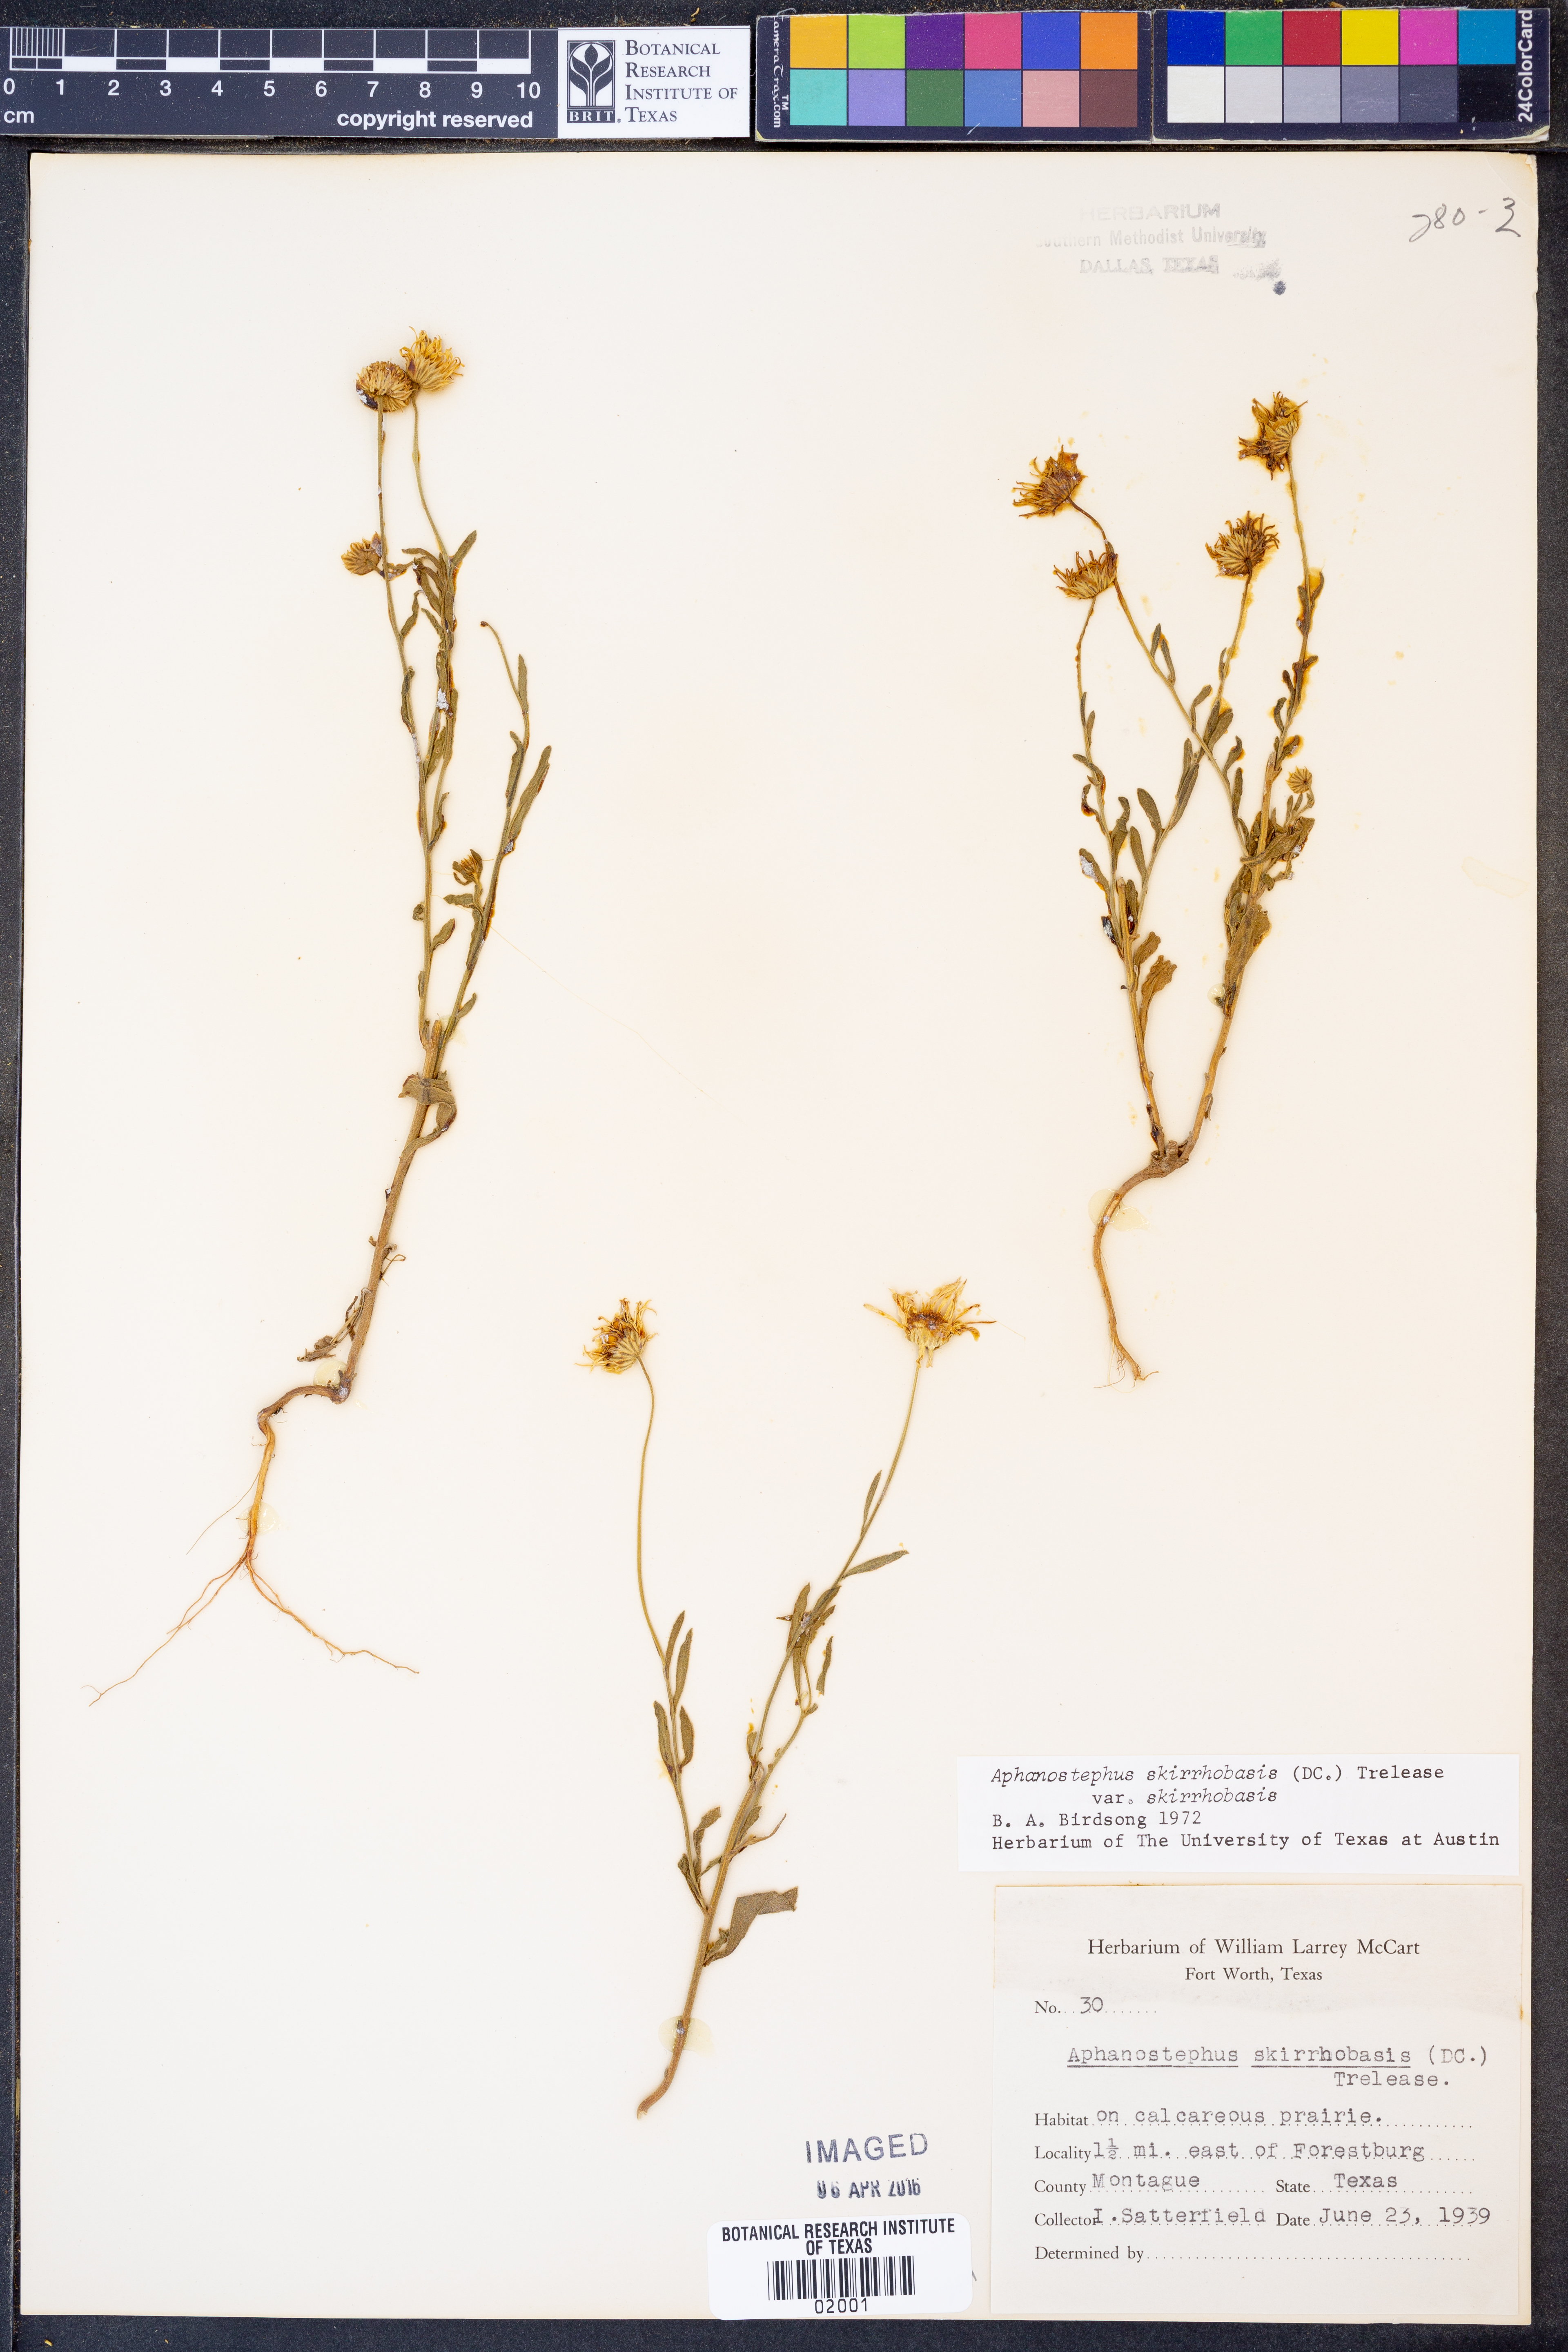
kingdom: Plantae
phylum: Tracheophyta
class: Magnoliopsida
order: Asterales
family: Asteraceae
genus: Aphanostephus
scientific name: Aphanostephus skirrhobasis
